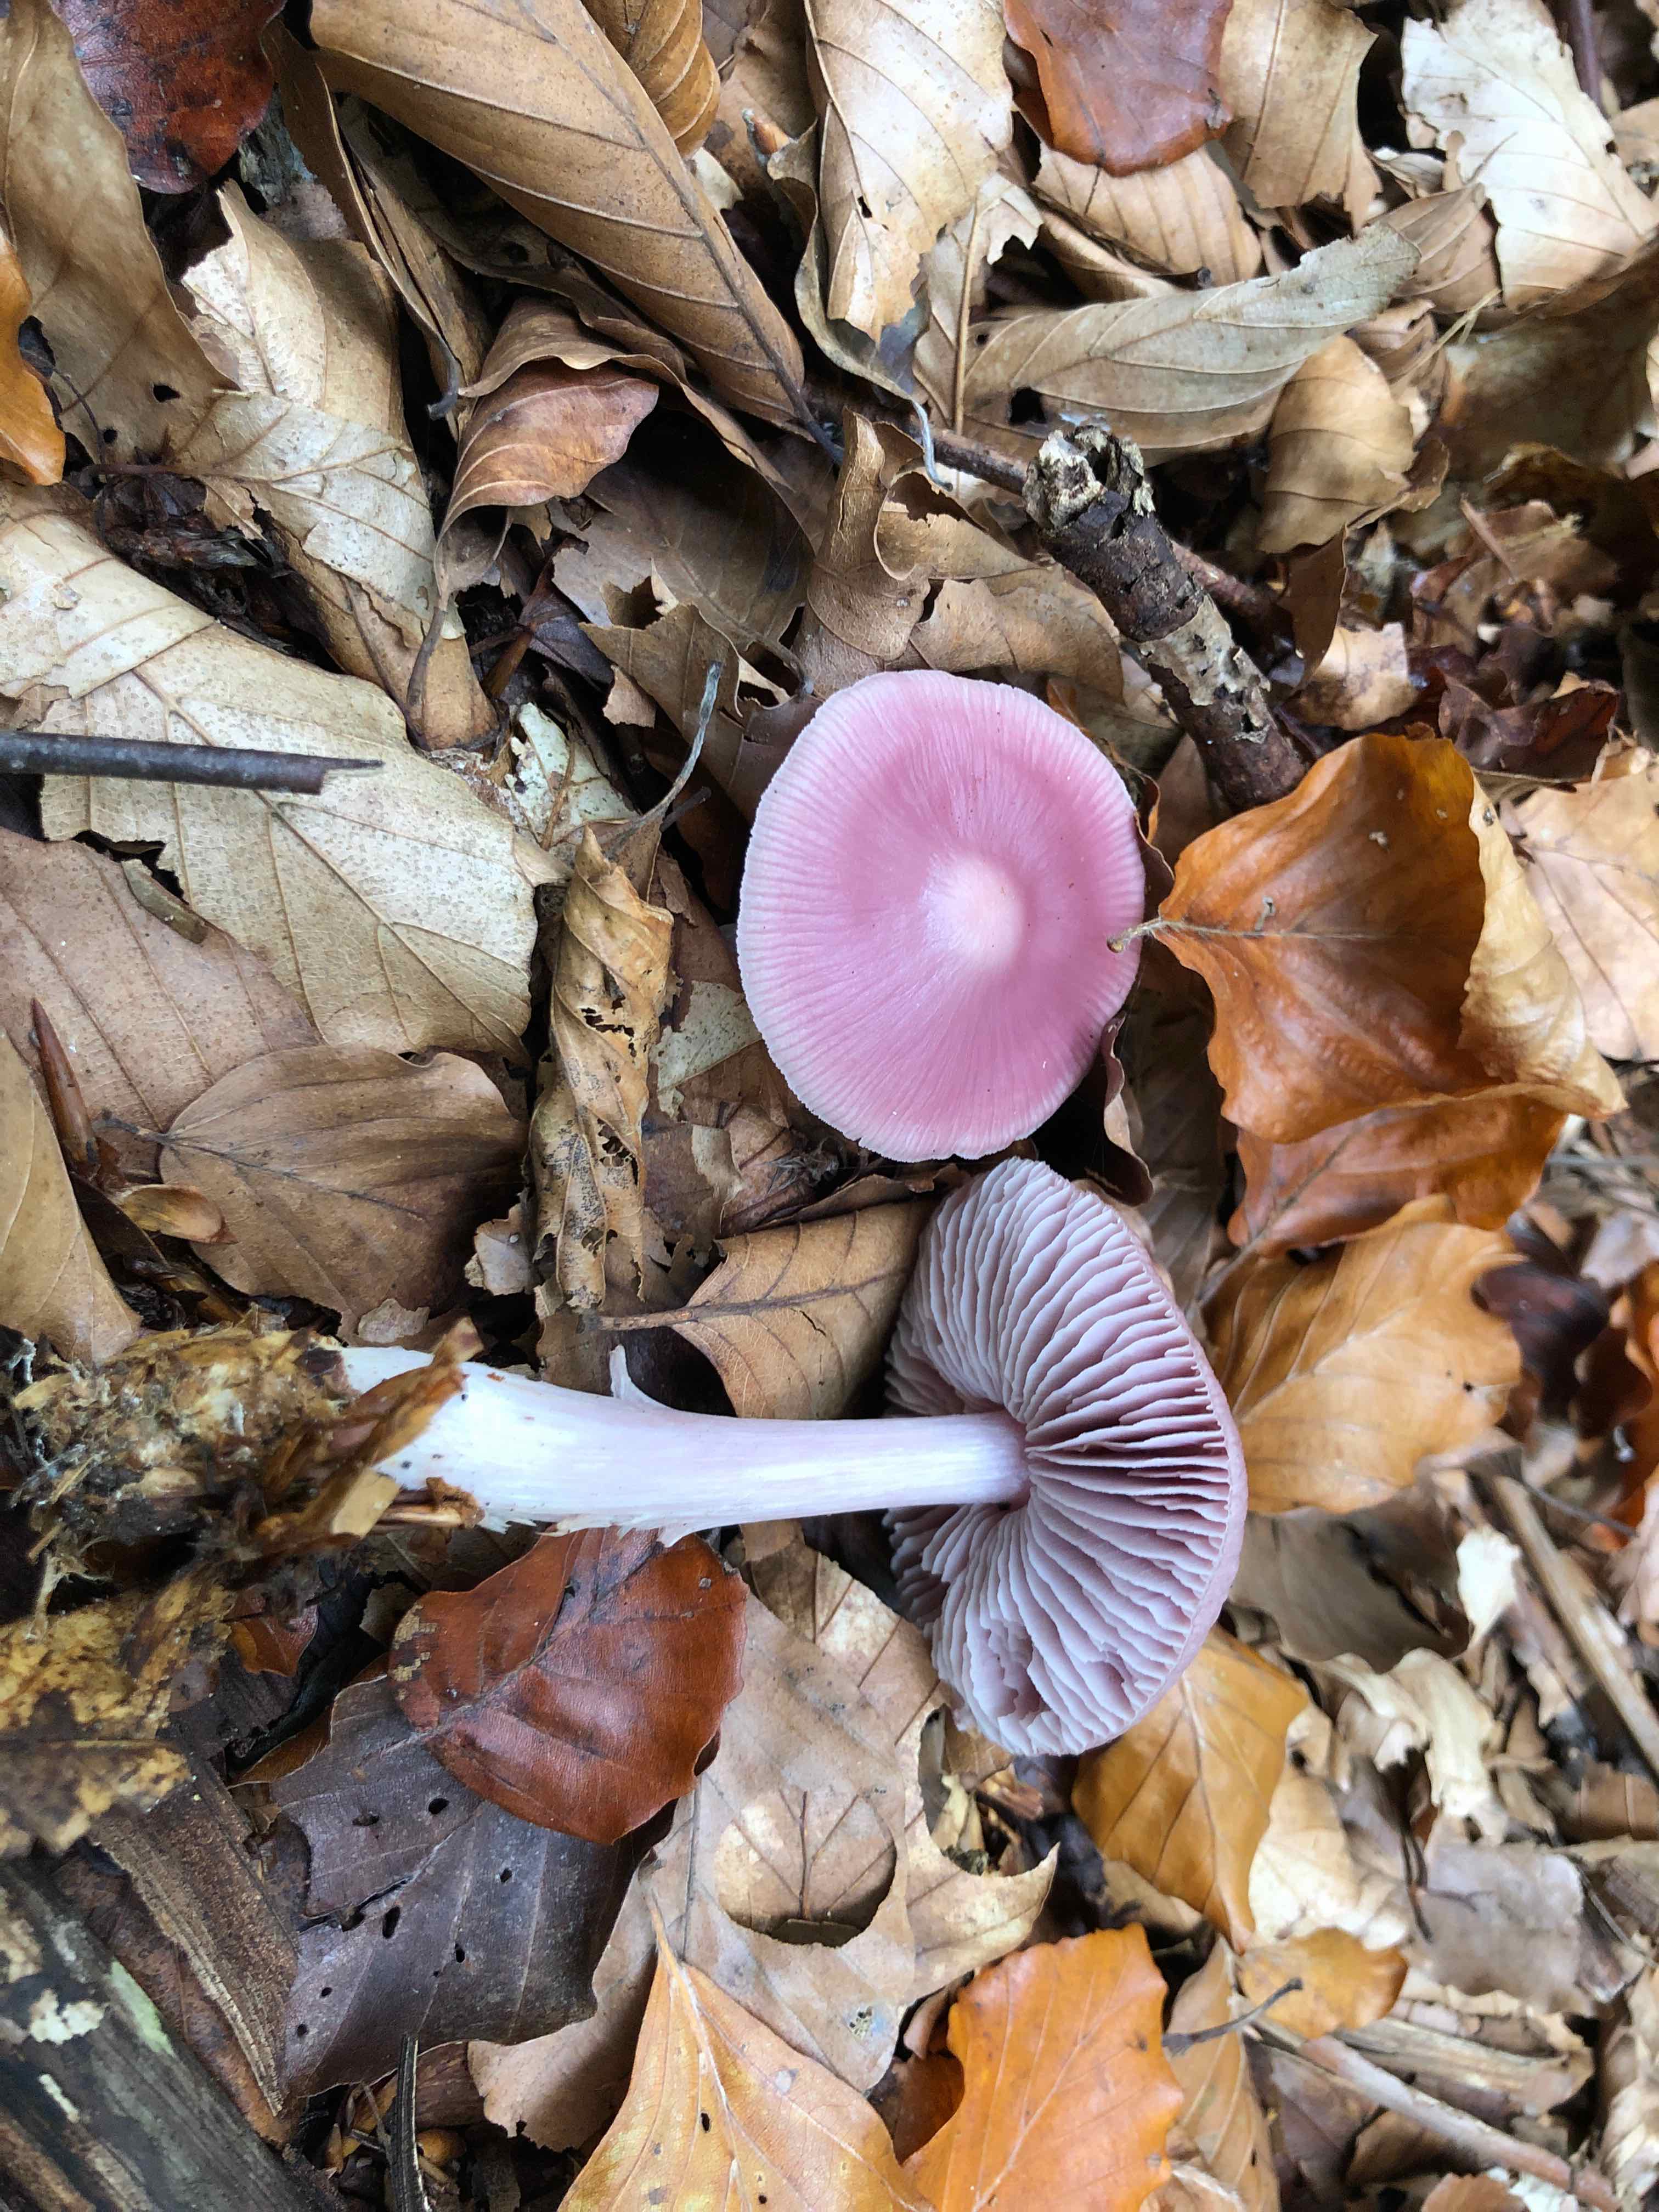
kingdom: Fungi
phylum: Basidiomycota
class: Agaricomycetes
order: Agaricales
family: Mycenaceae
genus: Mycena
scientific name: Mycena rosea
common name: rosa huesvamp
